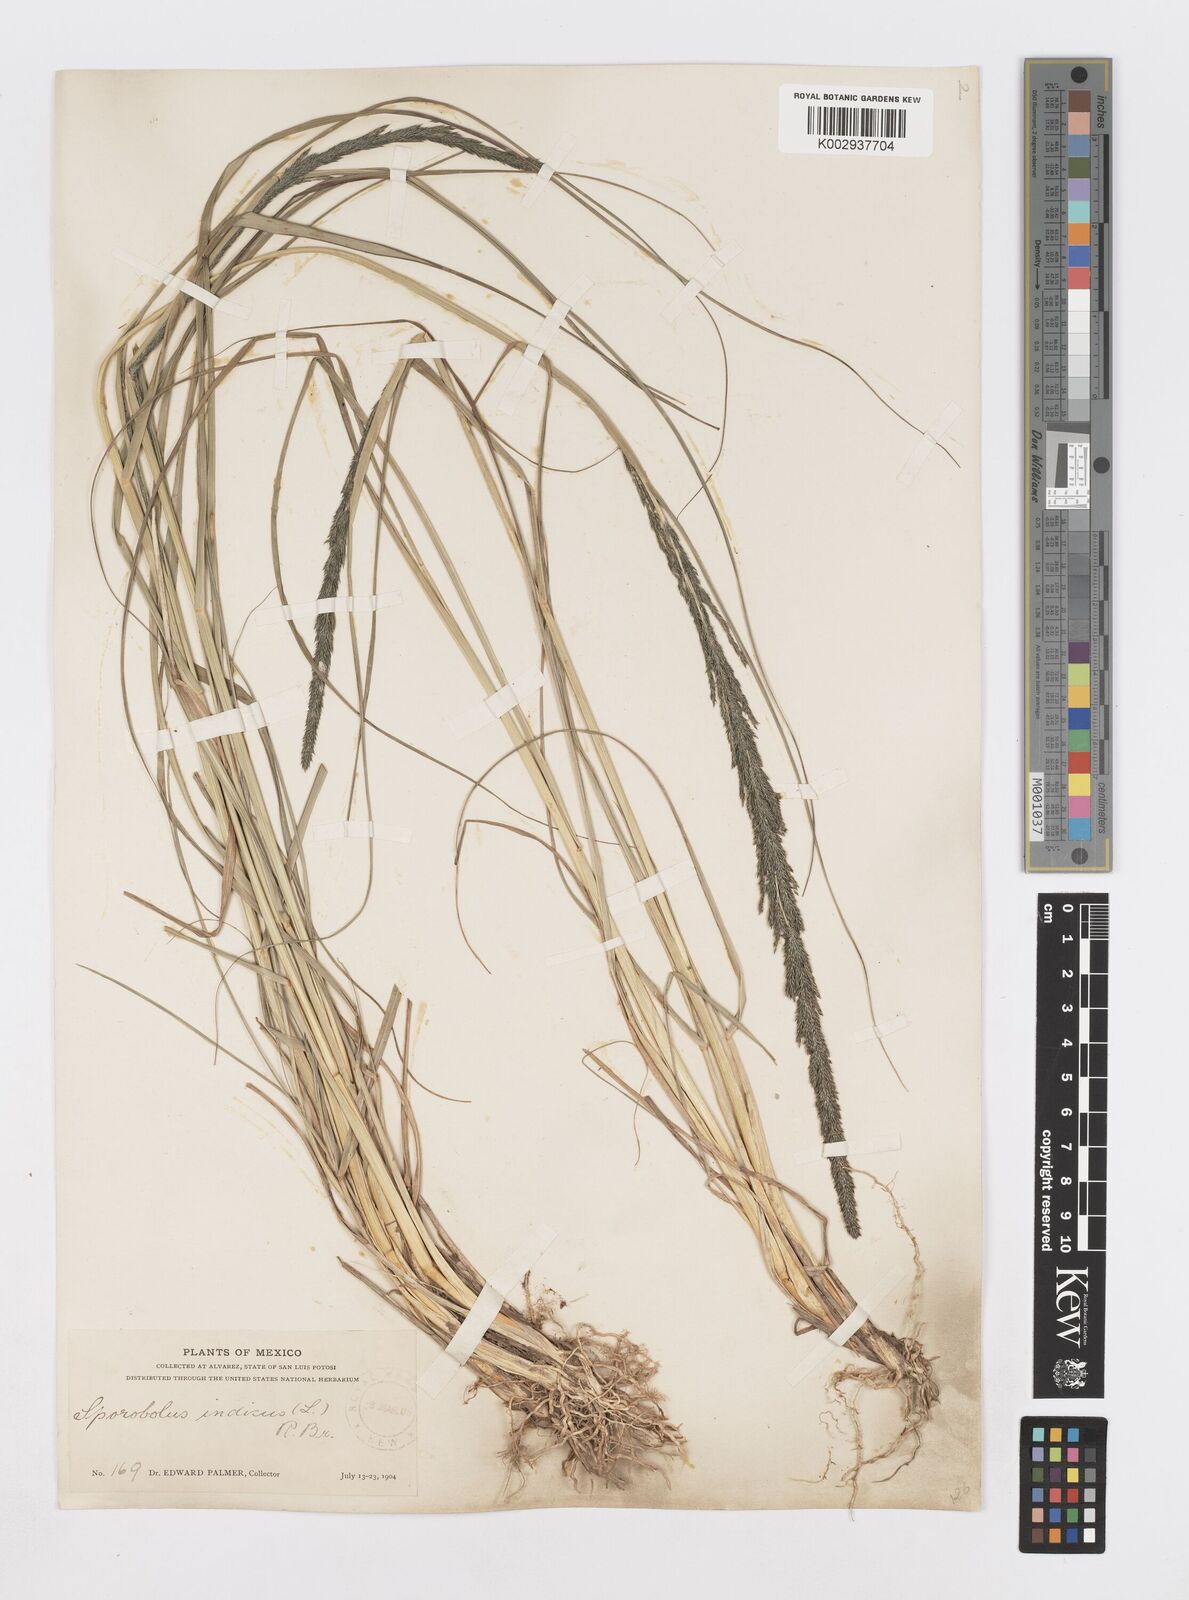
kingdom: Plantae
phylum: Tracheophyta
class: Liliopsida
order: Poales
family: Poaceae
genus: Sporobolus
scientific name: Sporobolus junceus
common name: Lizard grass
